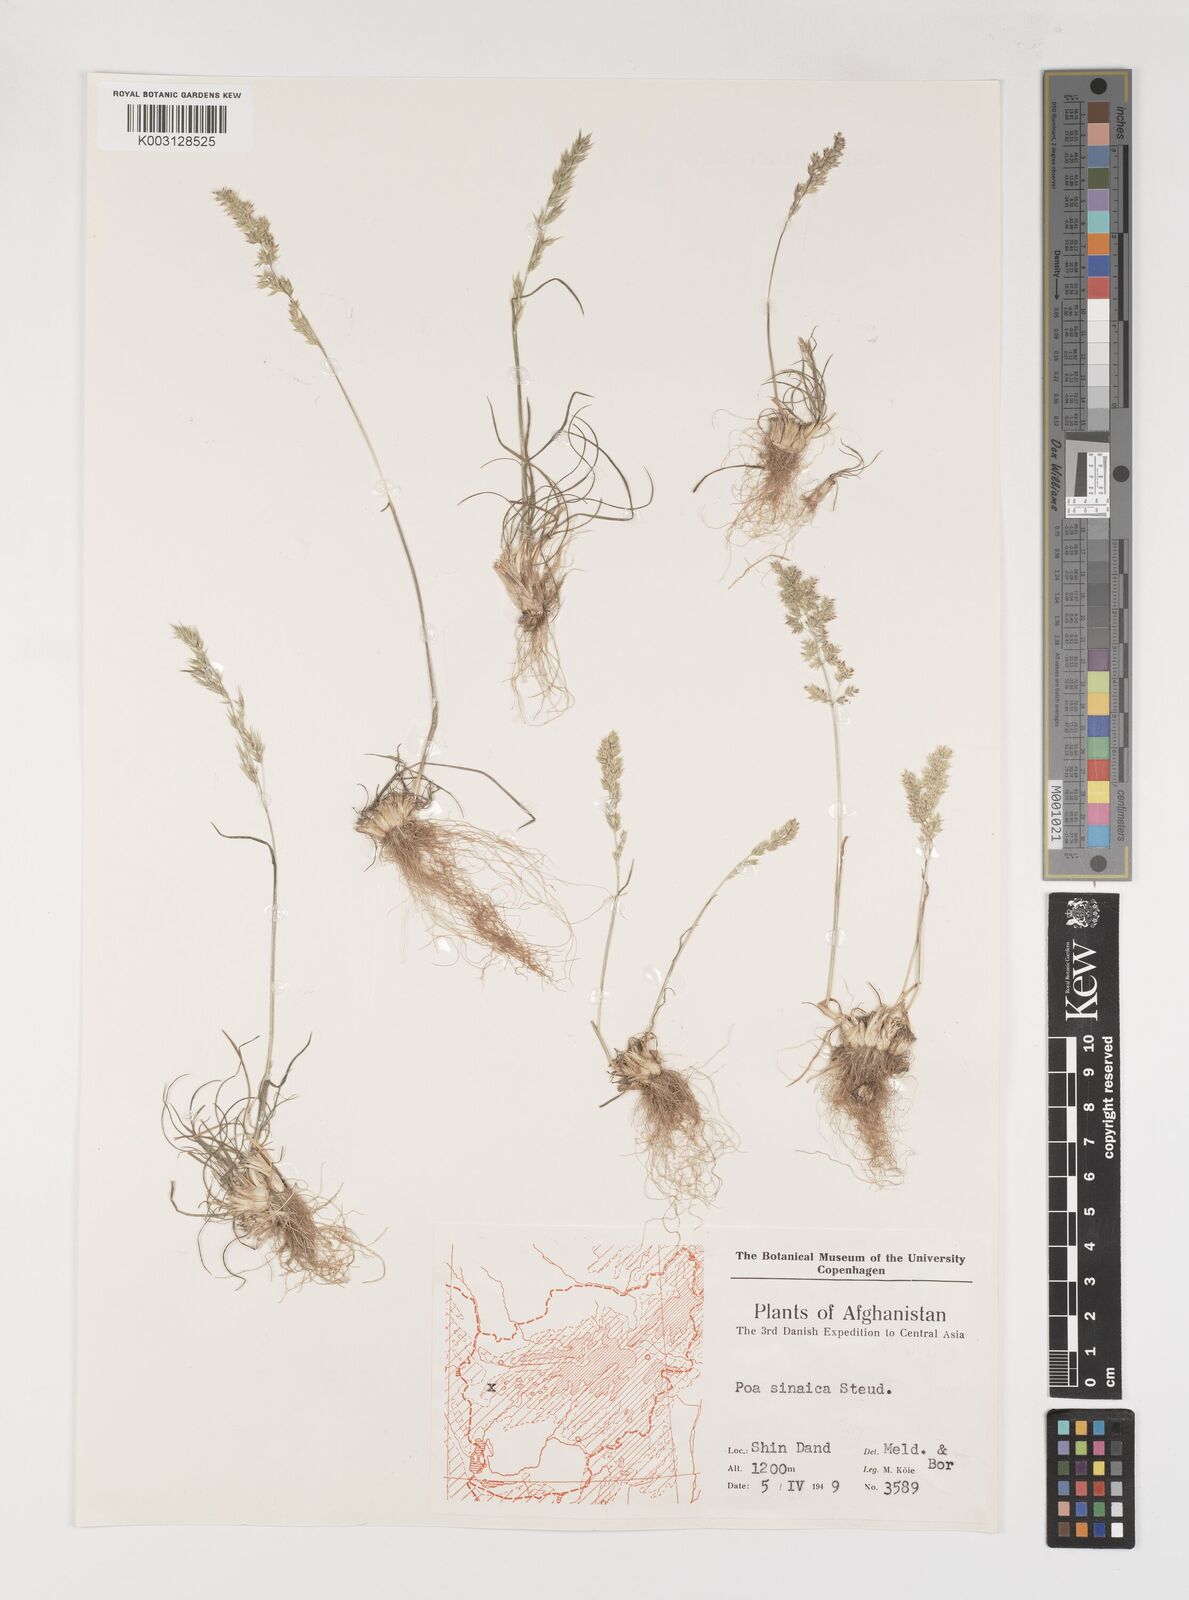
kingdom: Plantae
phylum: Tracheophyta
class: Liliopsida
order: Poales
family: Poaceae
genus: Poa
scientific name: Poa sinaica
